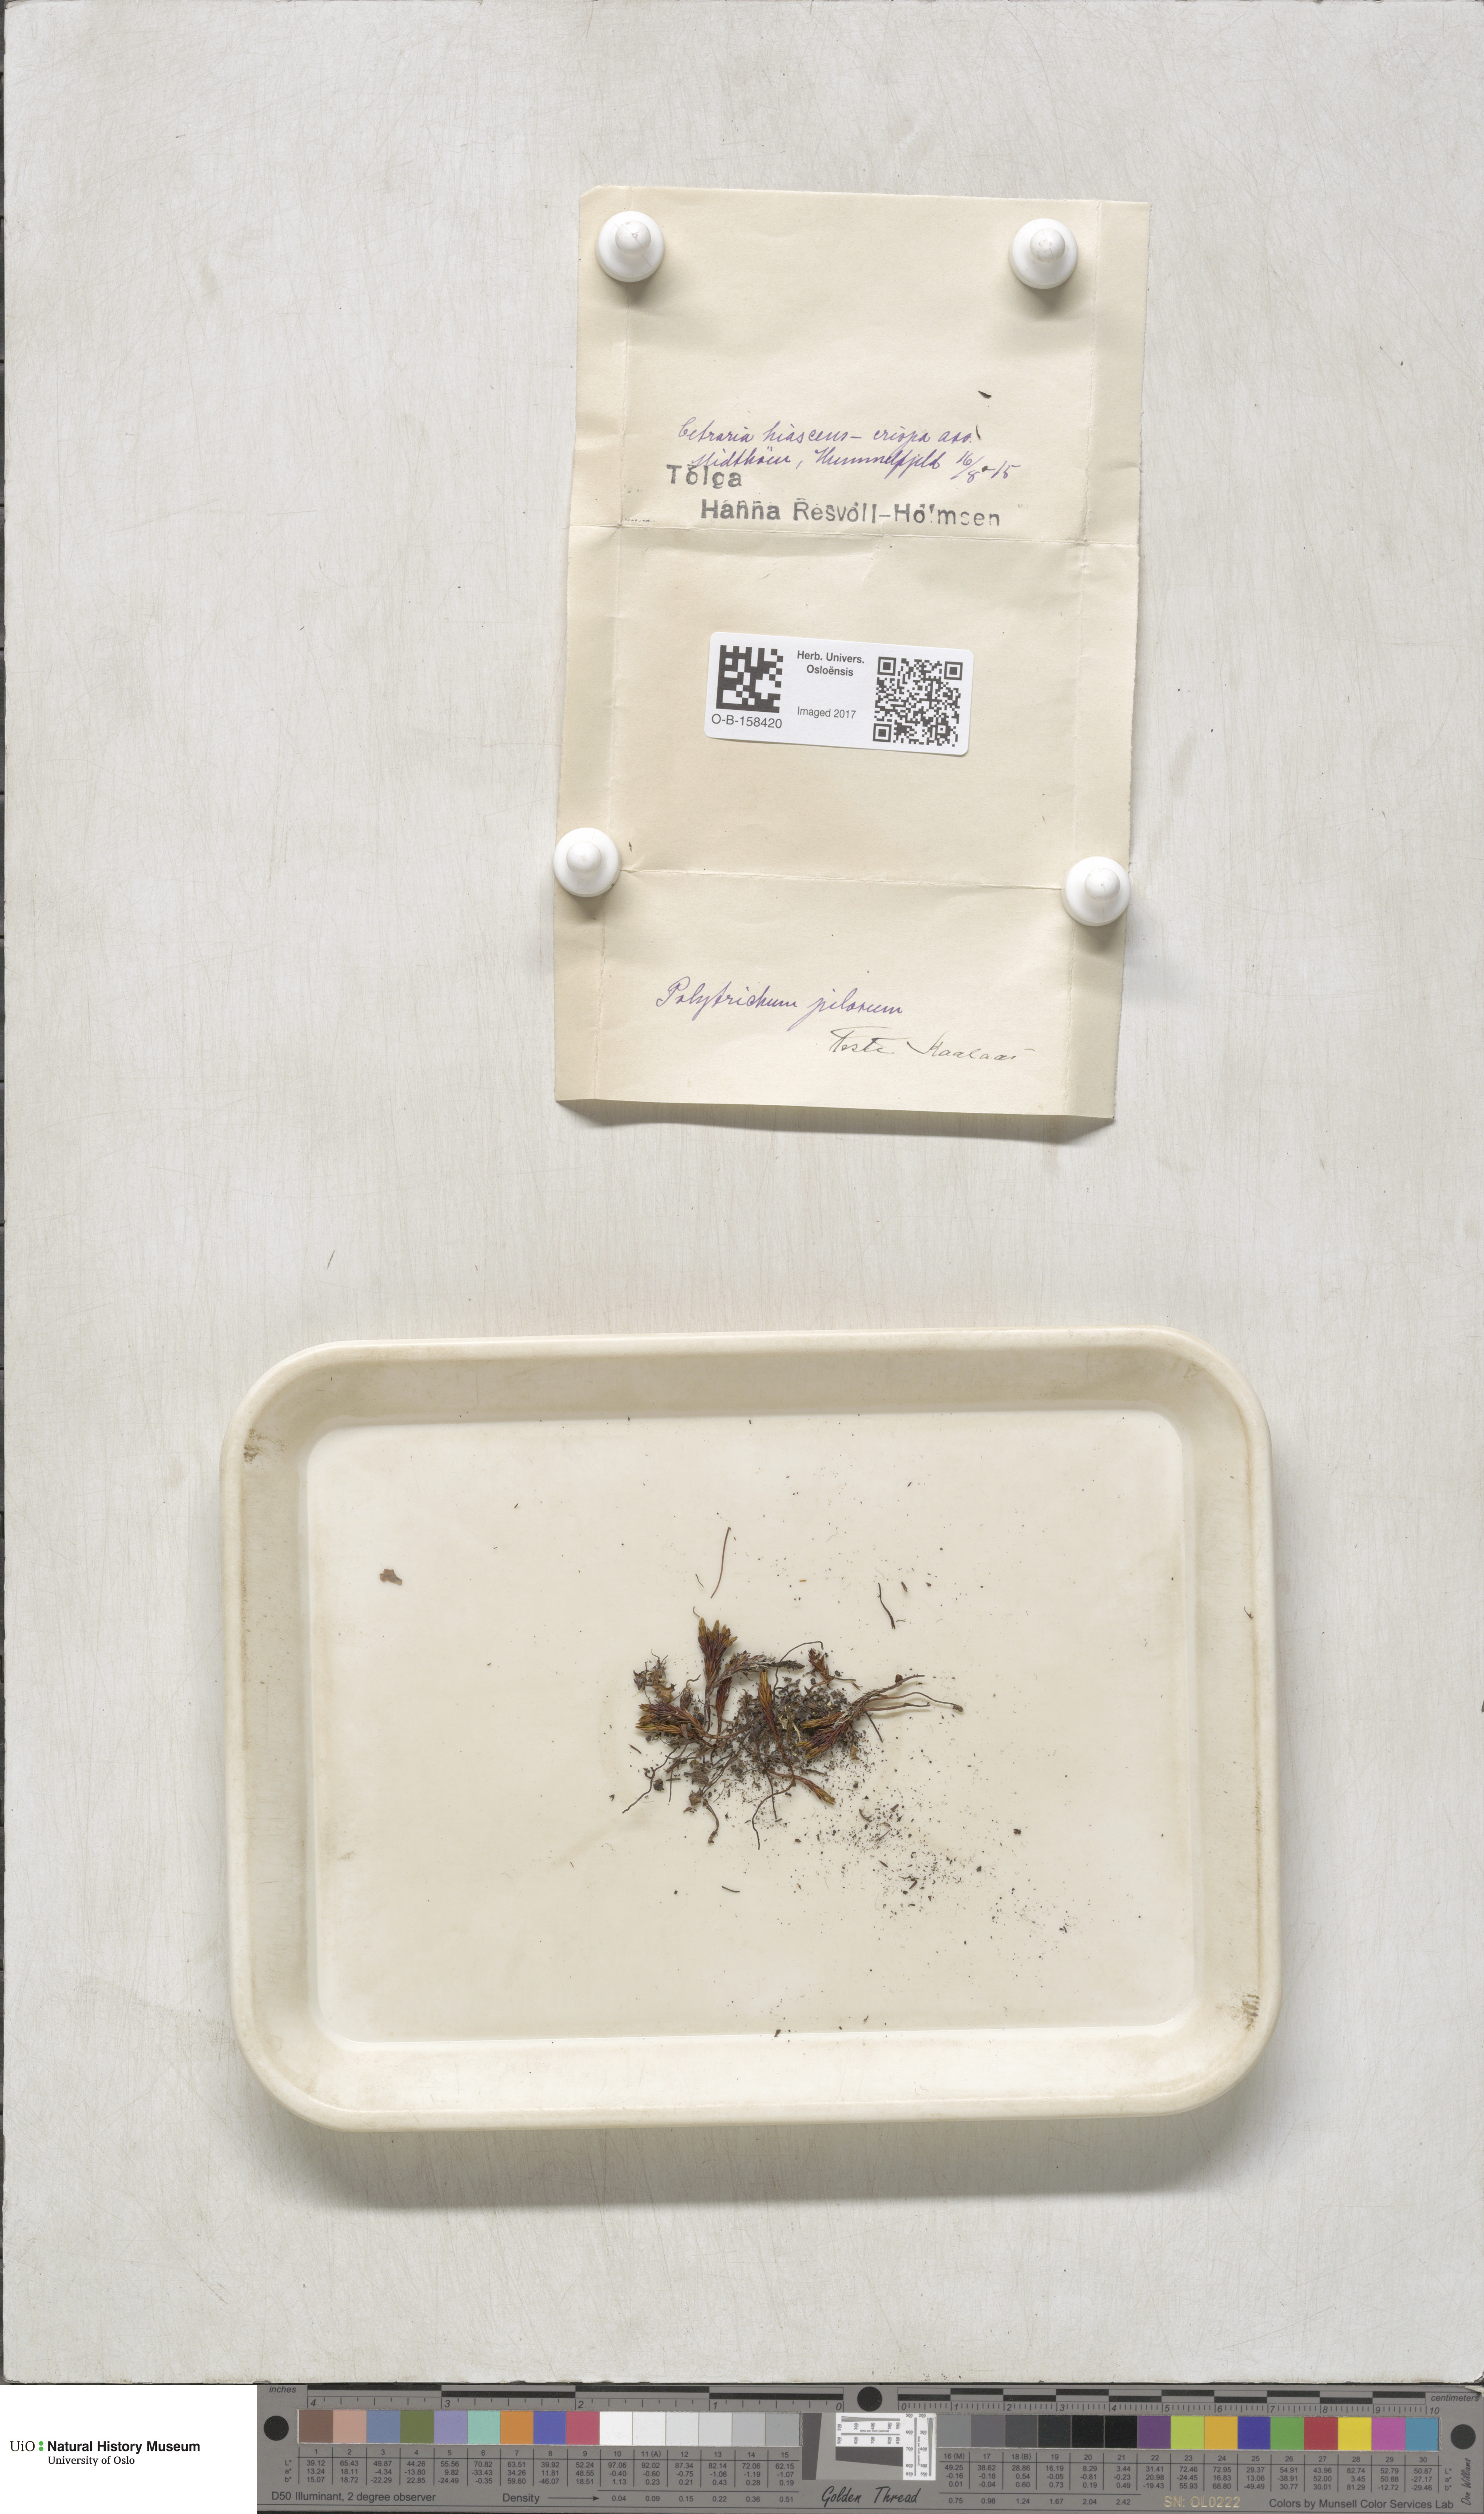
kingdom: Plantae
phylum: Bryophyta
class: Polytrichopsida
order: Polytrichales
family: Polytrichaceae
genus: Pogonatum
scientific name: Pogonatum urnigerum
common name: Urn hair moss
